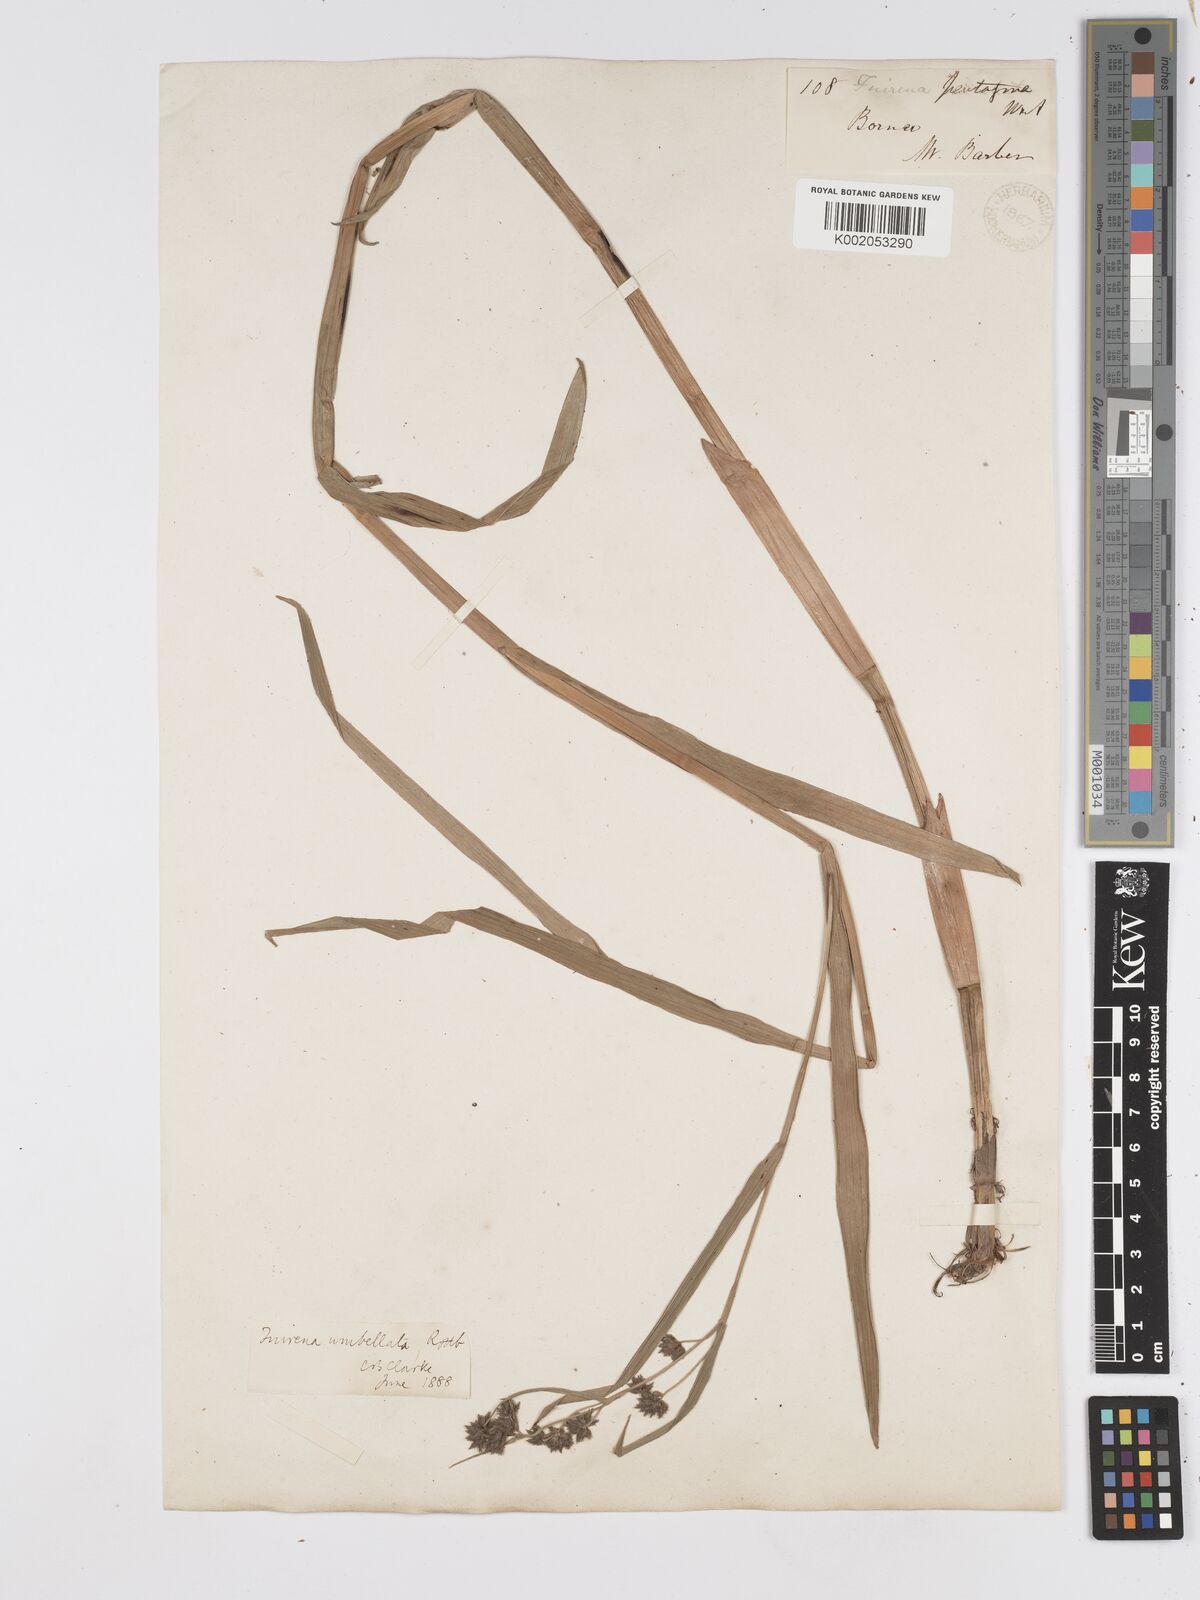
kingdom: Plantae
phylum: Tracheophyta
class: Liliopsida
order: Poales
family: Cyperaceae
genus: Fuirena
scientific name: Fuirena umbellata
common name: Yefen
